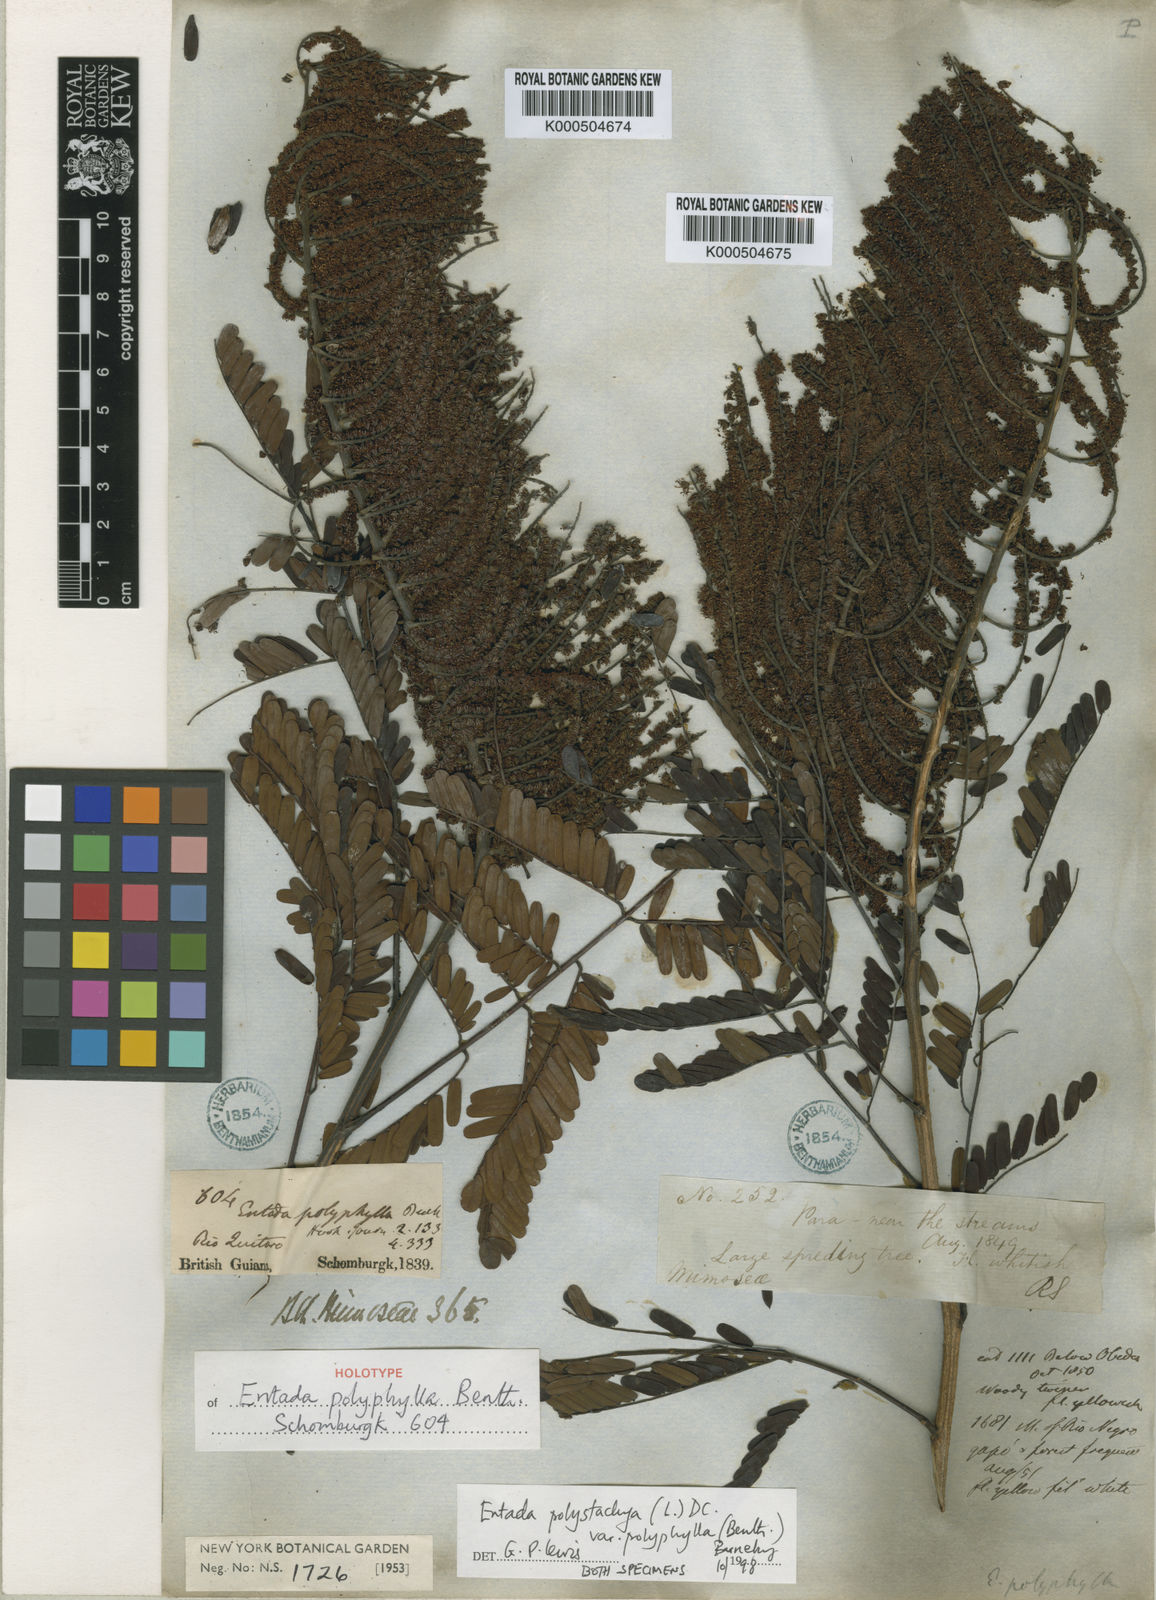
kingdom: Plantae
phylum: Tracheophyta
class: Magnoliopsida
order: Fabales
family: Fabaceae
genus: Entada
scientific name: Entada polyphylla
